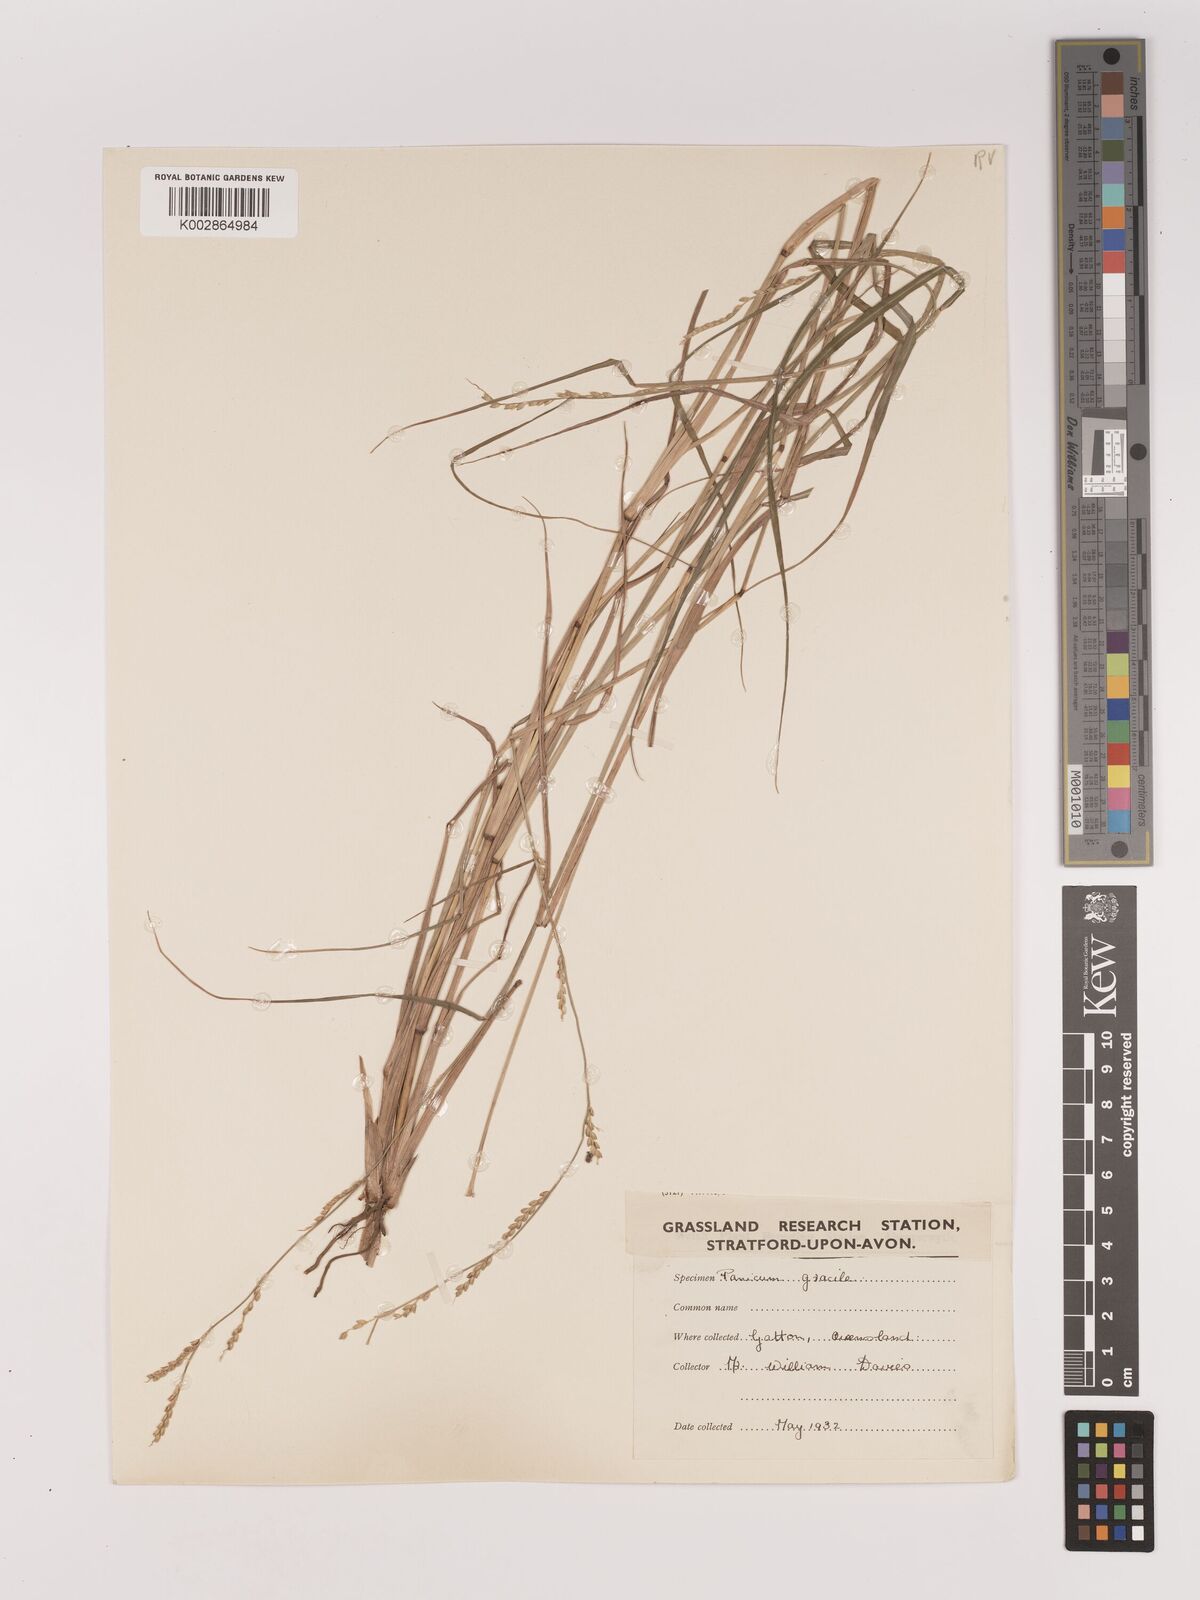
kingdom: Plantae
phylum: Tracheophyta
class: Liliopsida
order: Poales
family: Poaceae
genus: Setaria
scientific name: Setaria
